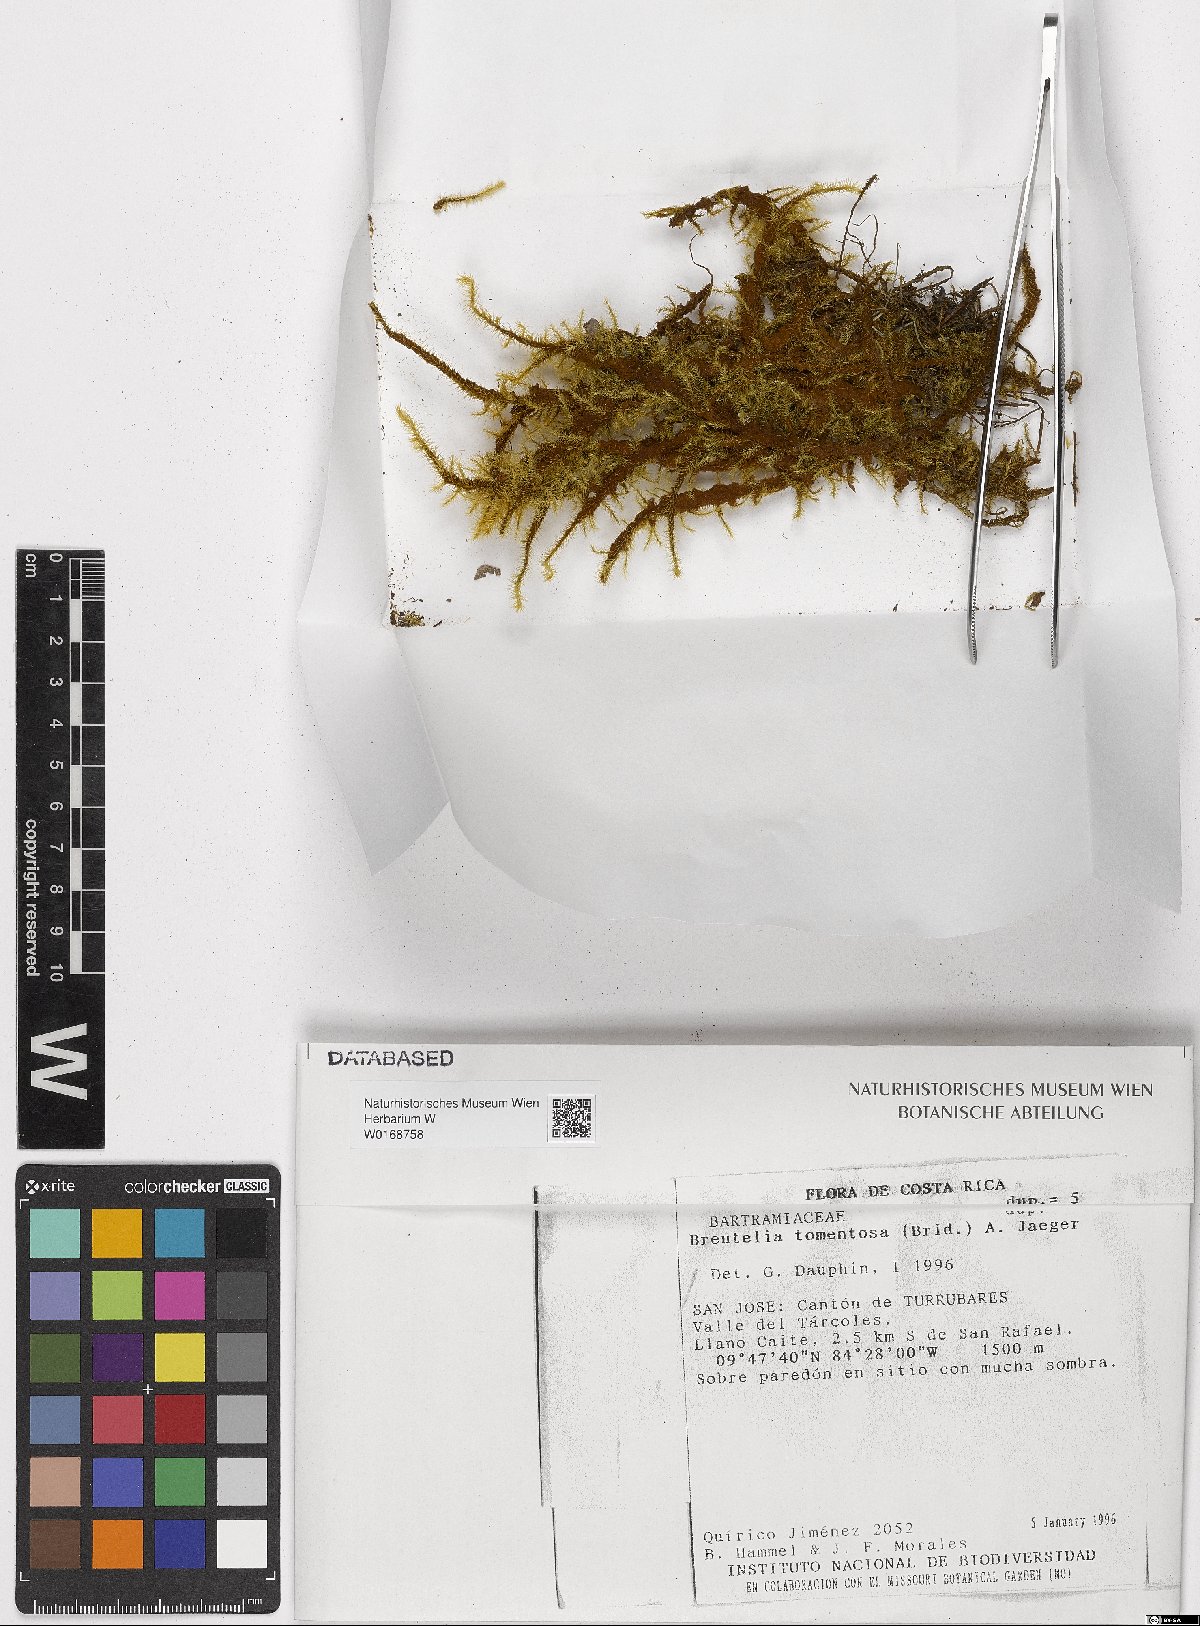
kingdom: Plantae
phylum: Bryophyta
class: Bryopsida
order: Bartramiales
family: Bartramiaceae
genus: Breutelia
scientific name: Breutelia tomentosa
